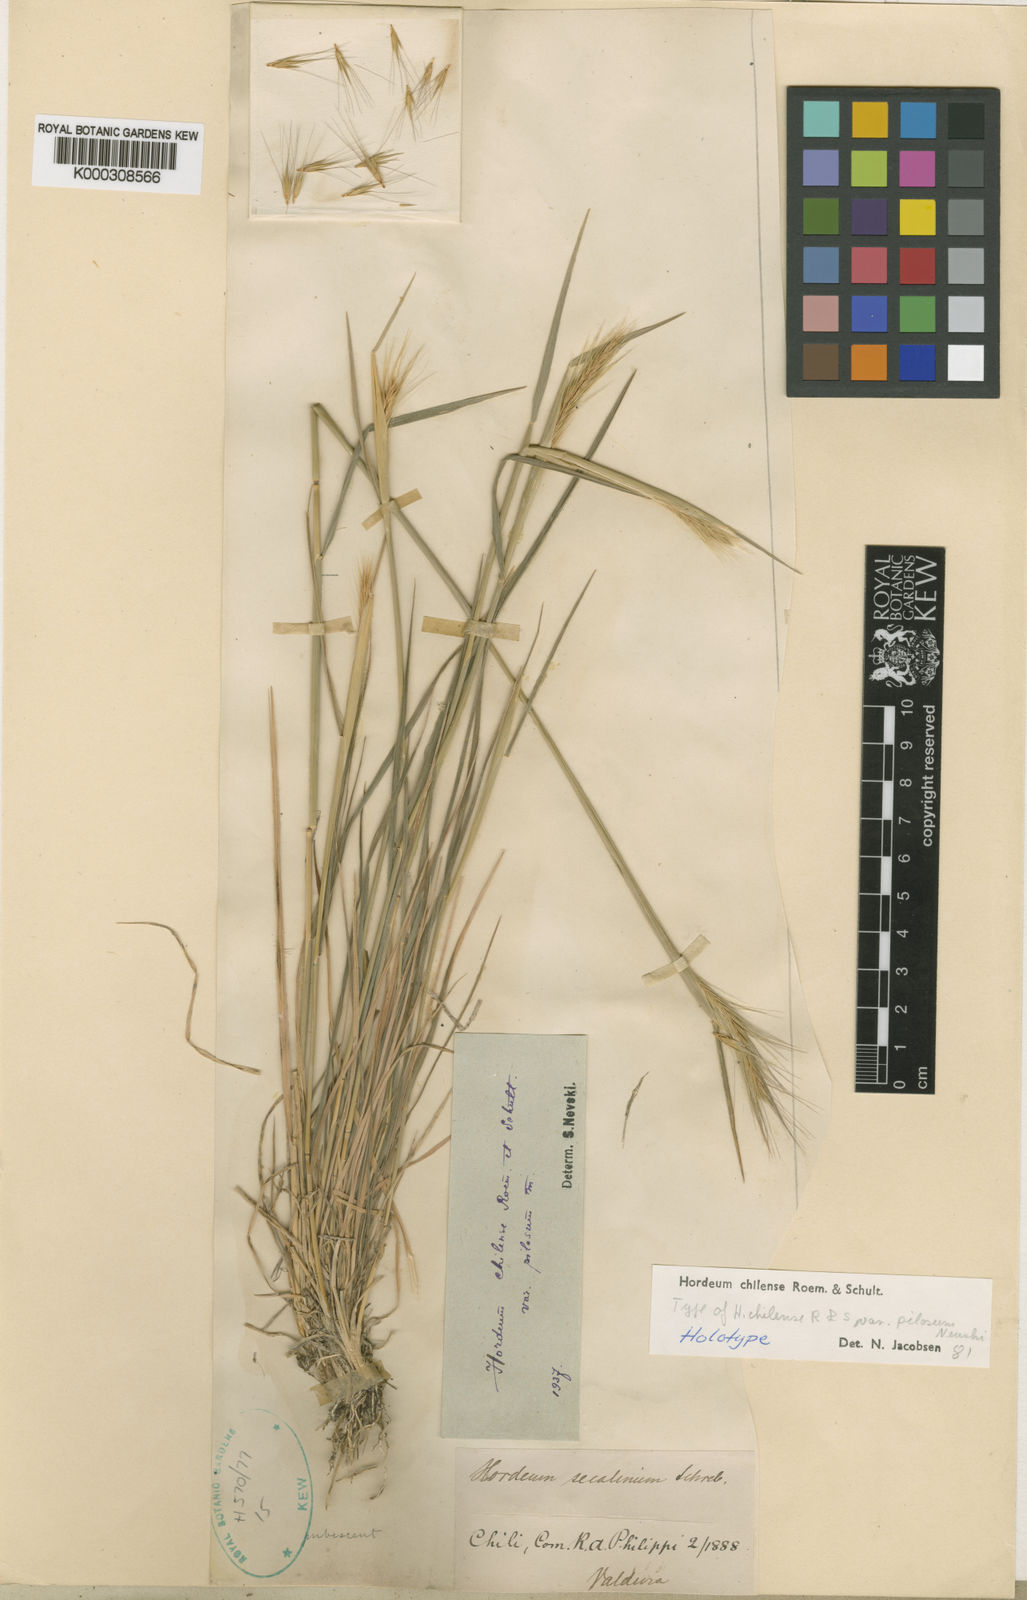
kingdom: Plantae
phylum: Tracheophyta
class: Liliopsida
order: Poales
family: Poaceae
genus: Hordeum
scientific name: Hordeum chilense
